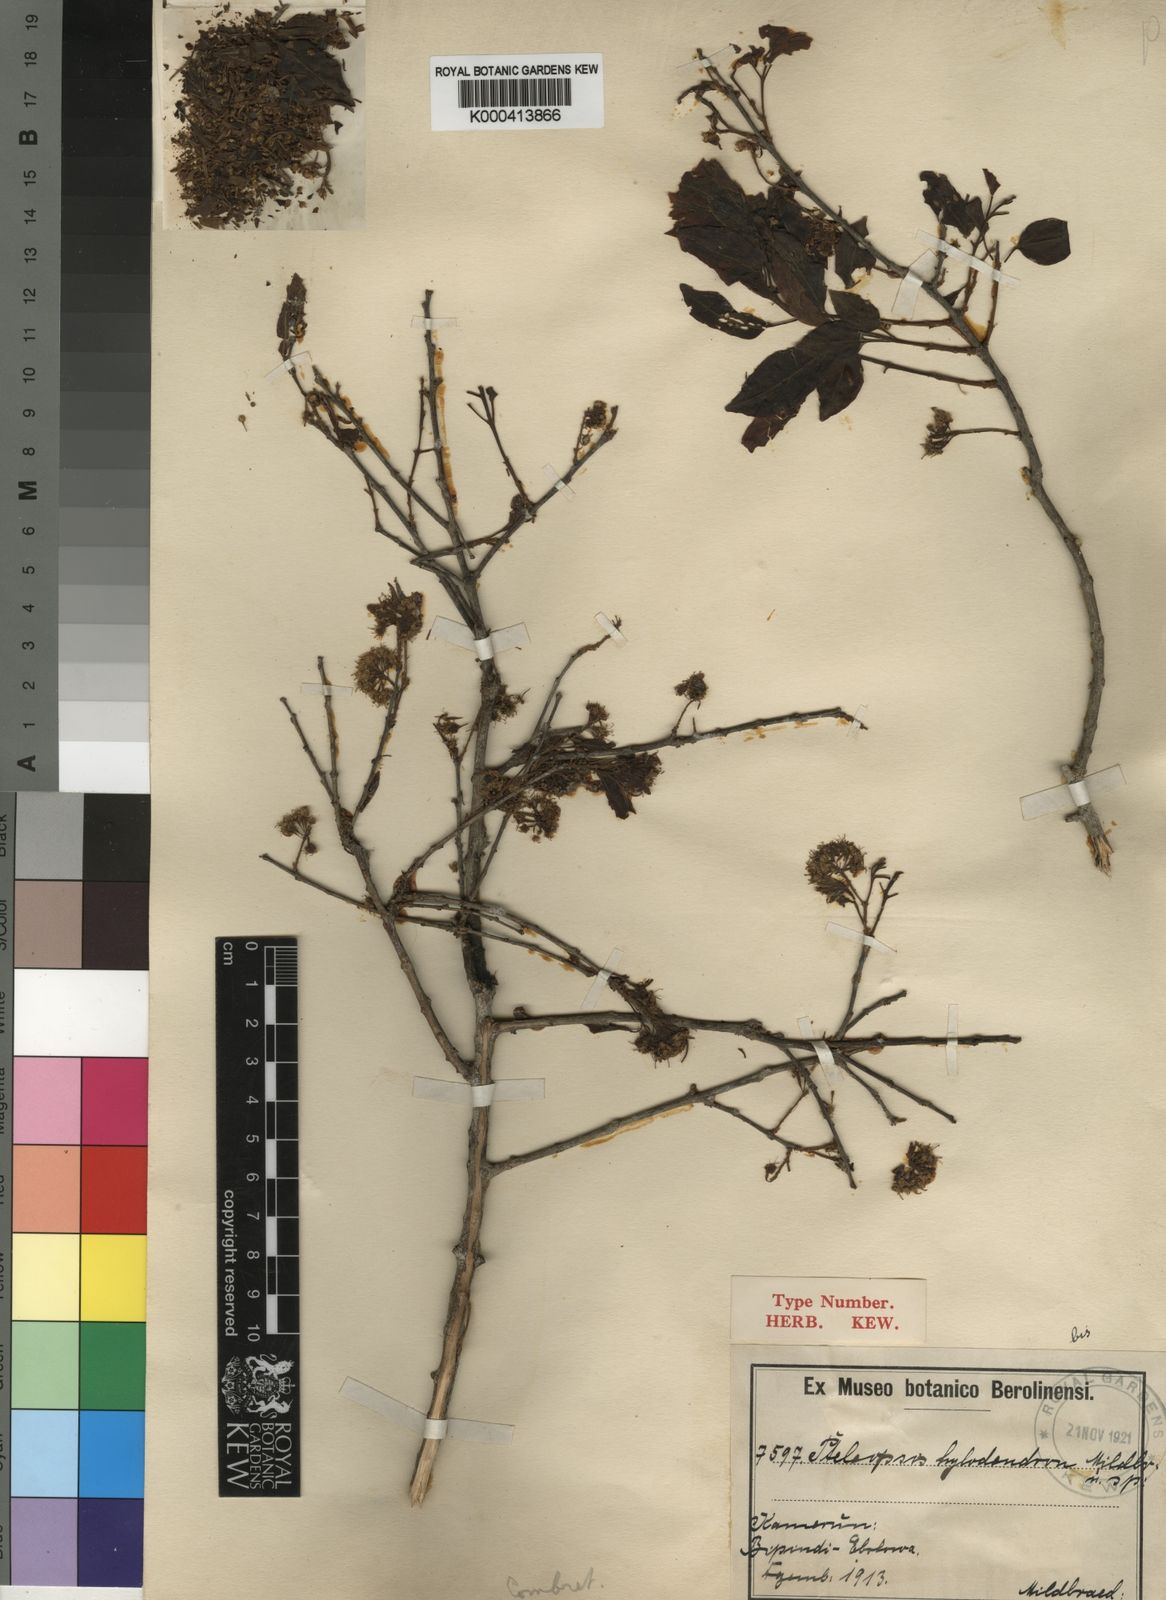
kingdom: Plantae
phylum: Tracheophyta
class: Magnoliopsida
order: Myrtales
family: Combretaceae
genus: Terminalia
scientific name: Terminalia hylodendron
